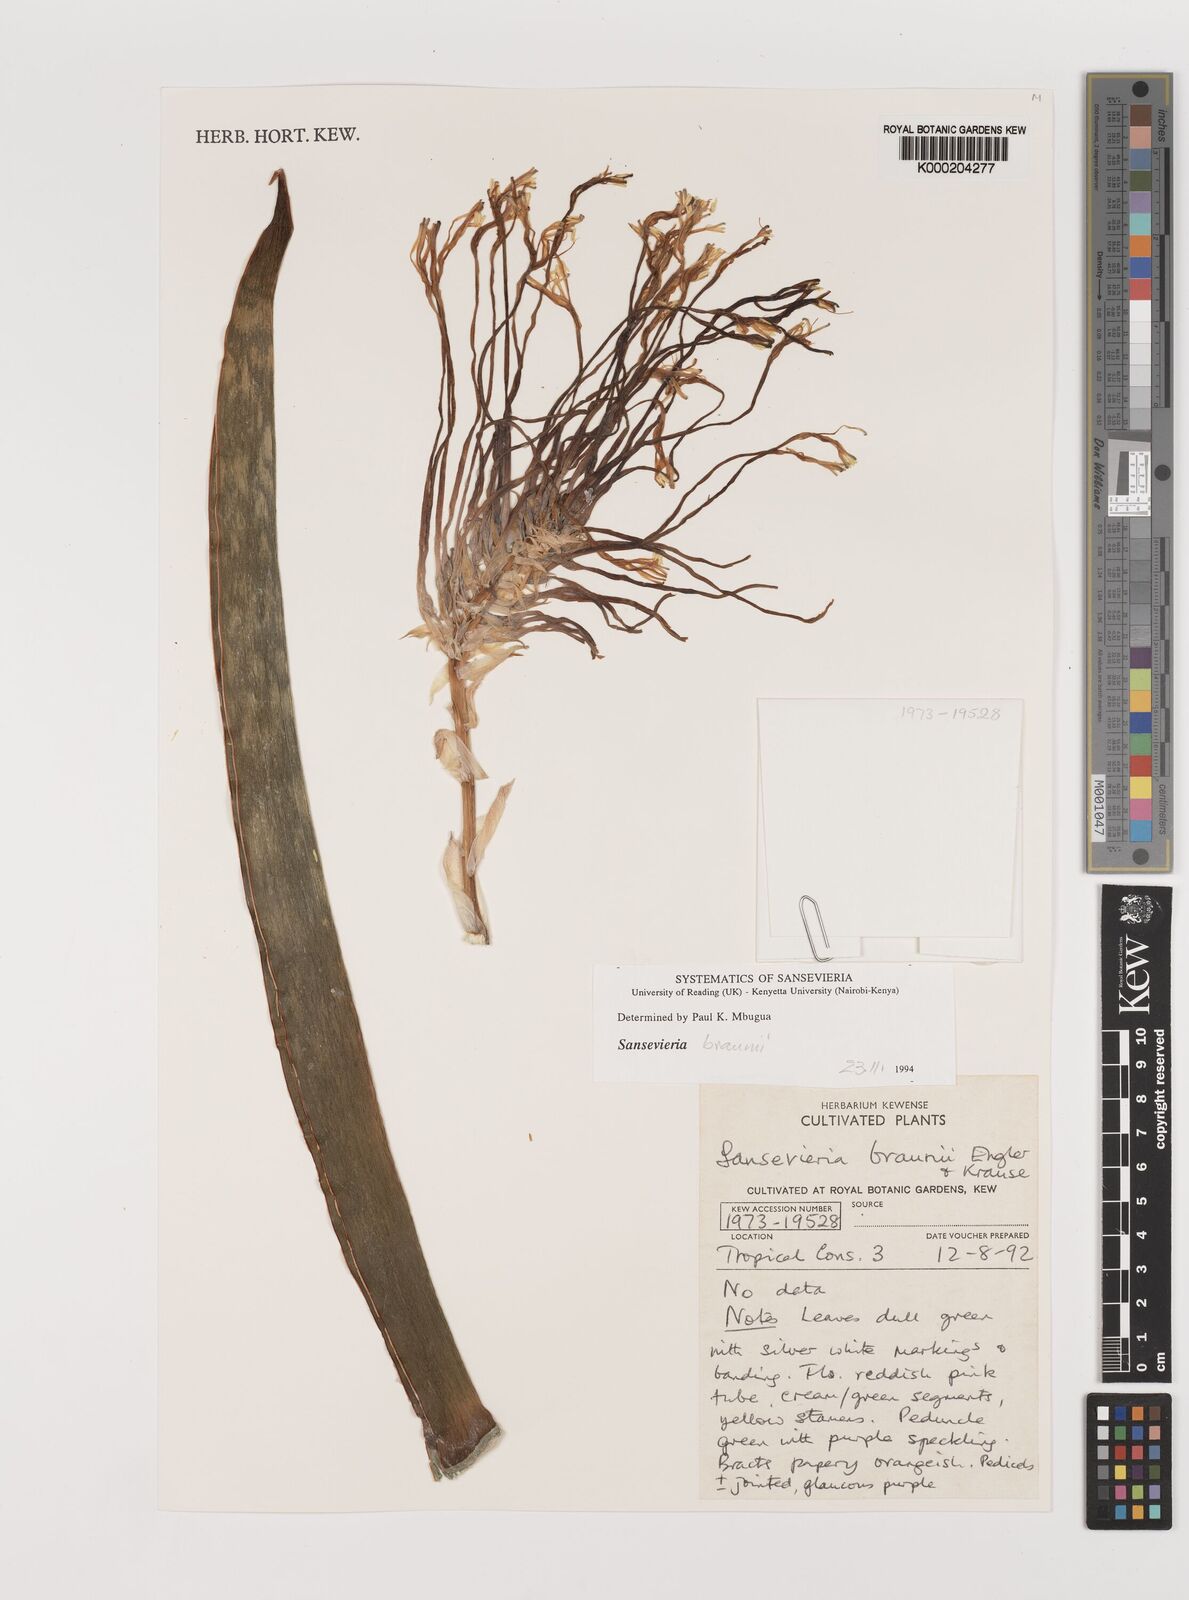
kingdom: Plantae
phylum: Tracheophyta
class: Liliopsida
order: Asparagales
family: Asparagaceae
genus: Dracaena
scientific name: Dracaena testudinea
